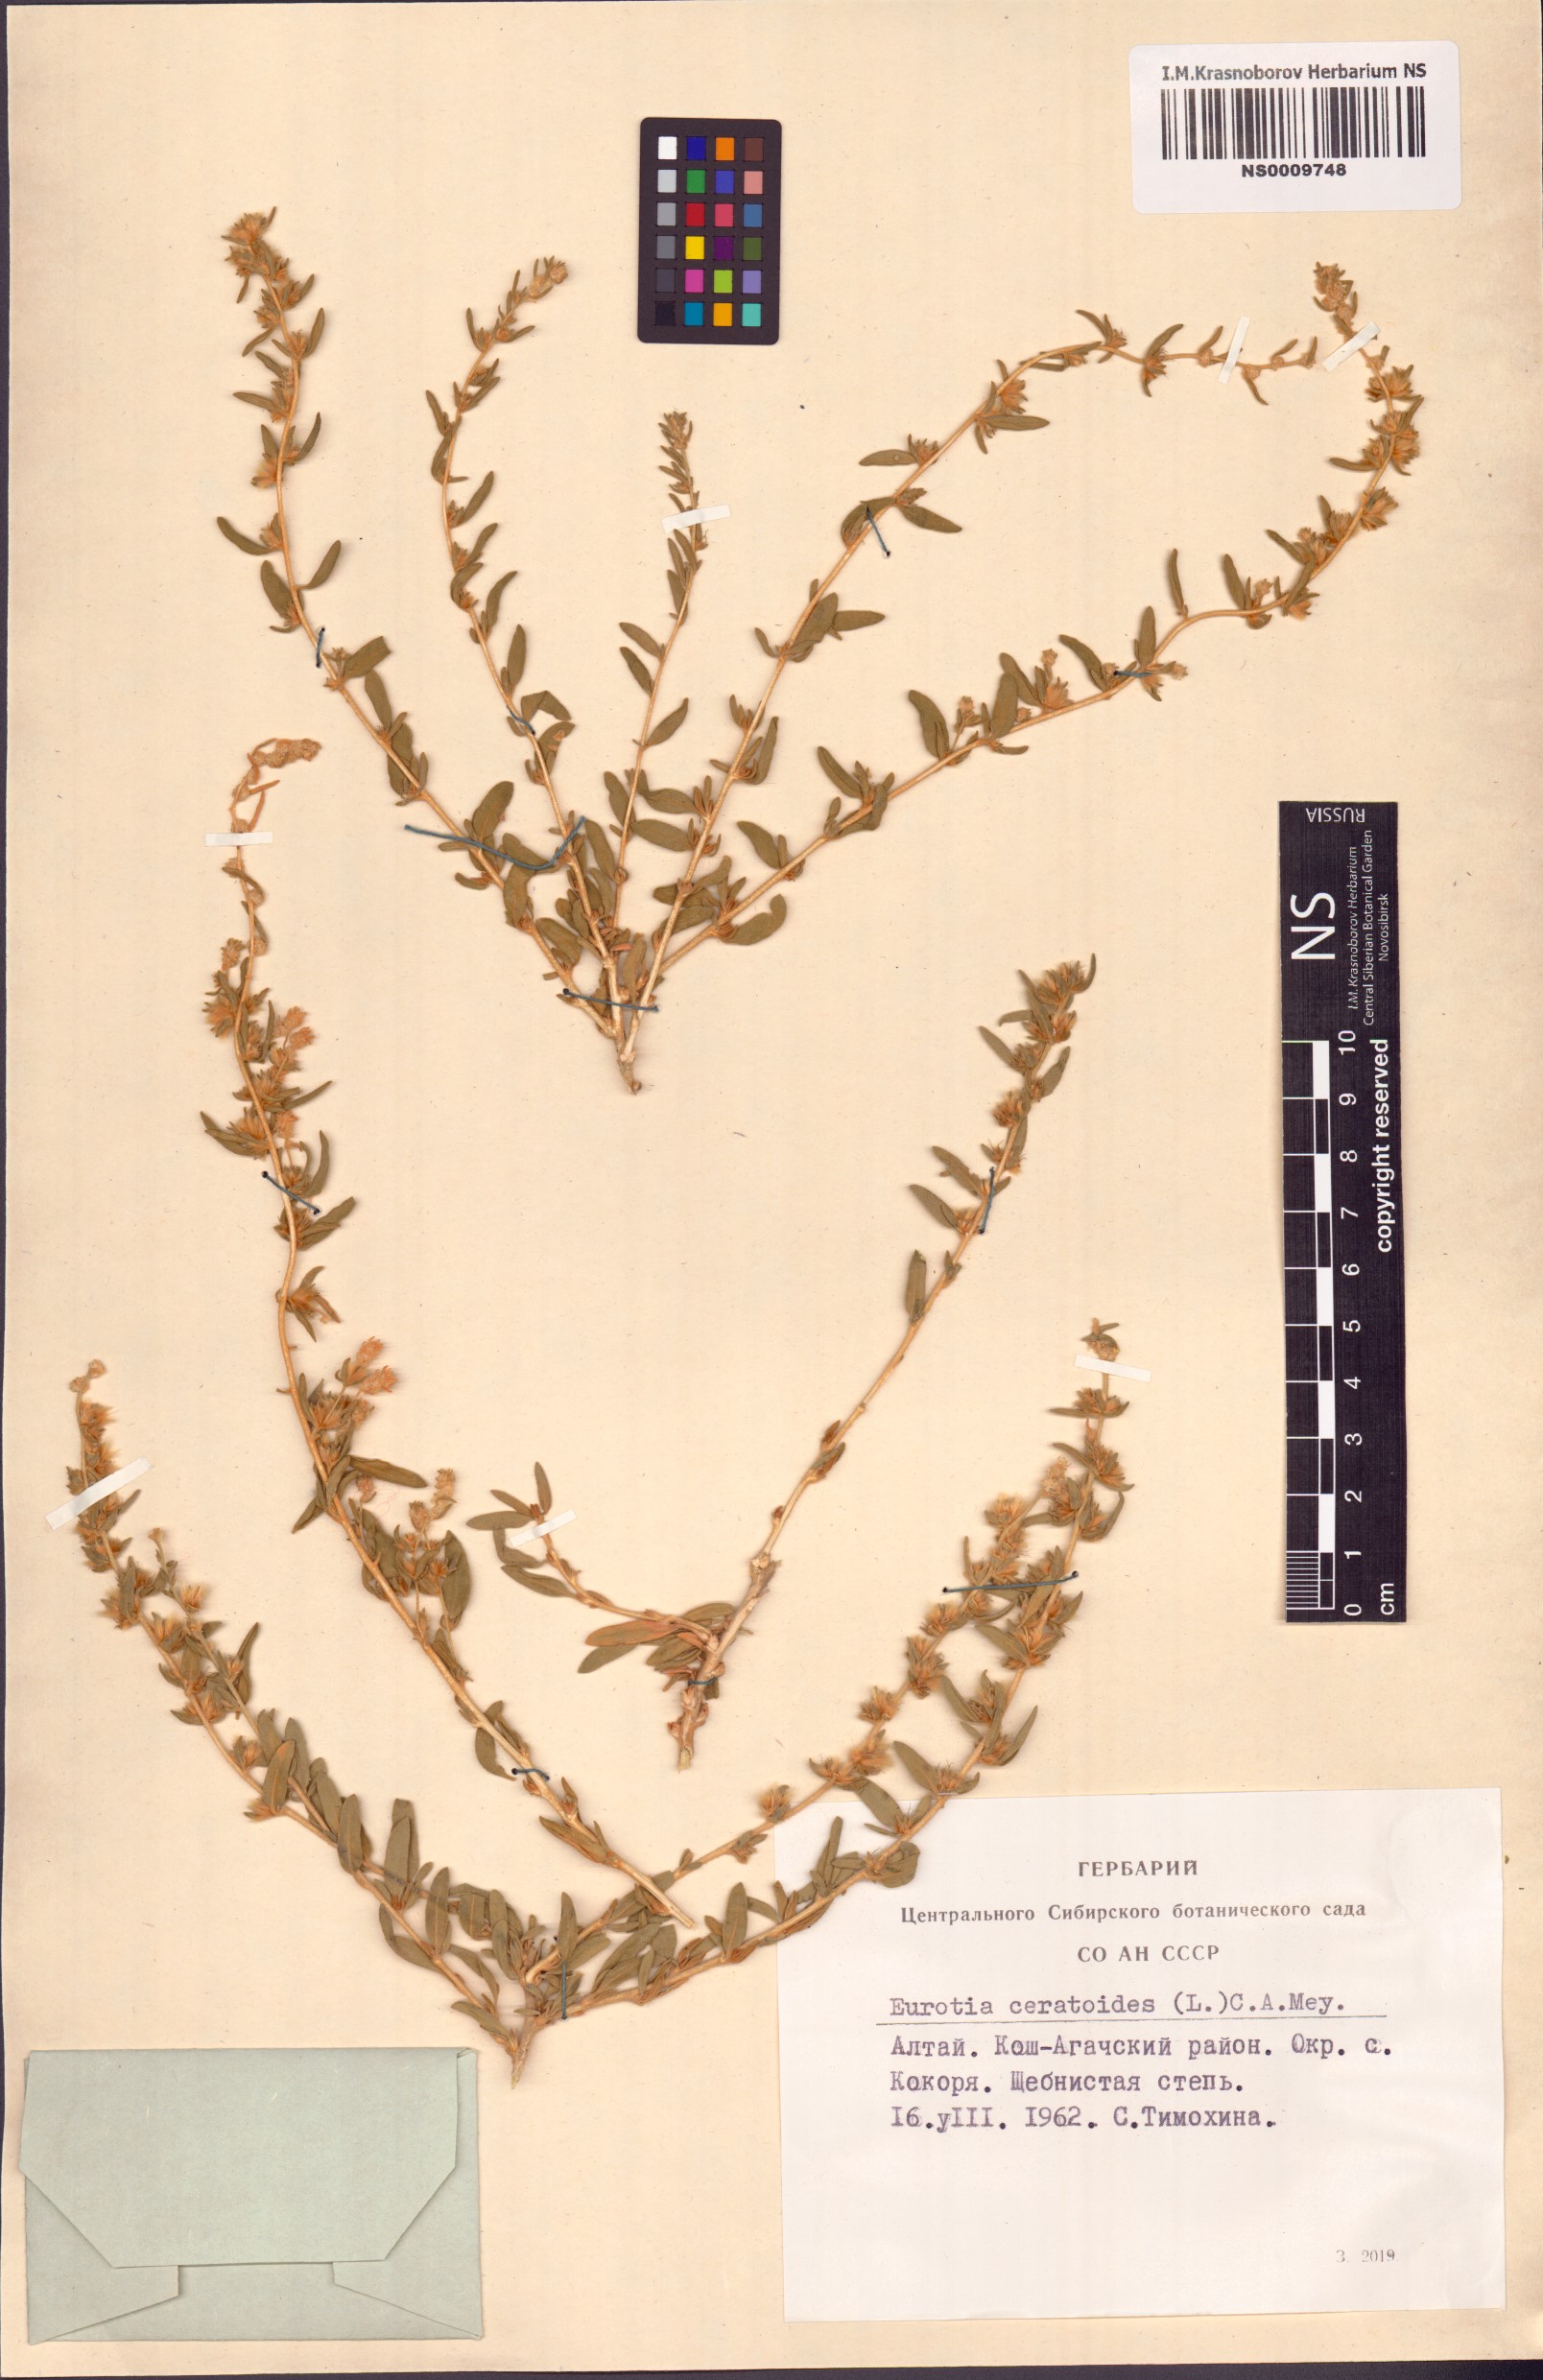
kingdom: Plantae
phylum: Tracheophyta
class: Magnoliopsida
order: Caryophyllales
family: Amaranthaceae
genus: Krascheninnikovia
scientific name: Krascheninnikovia ceratoides
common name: Pamirian winterfat
